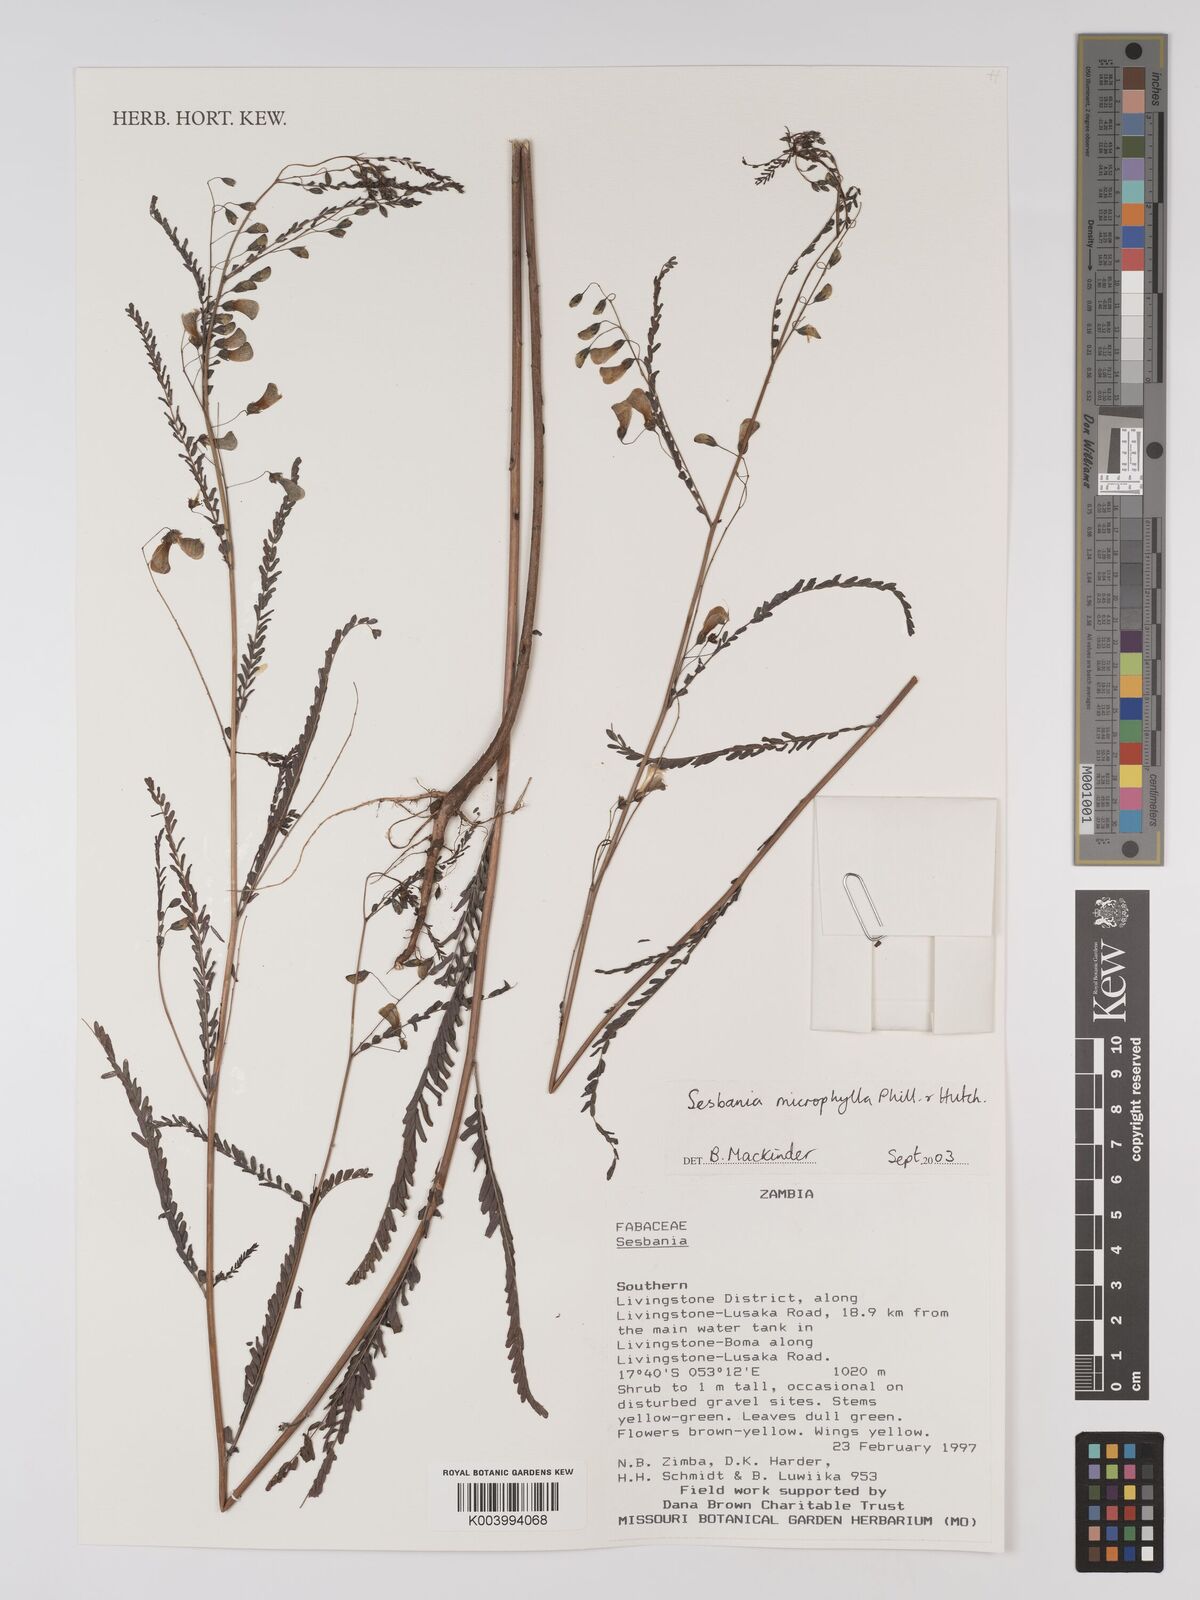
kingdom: Plantae
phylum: Tracheophyta
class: Magnoliopsida
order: Fabales
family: Fabaceae
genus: Sesbania
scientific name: Sesbania microphylla
